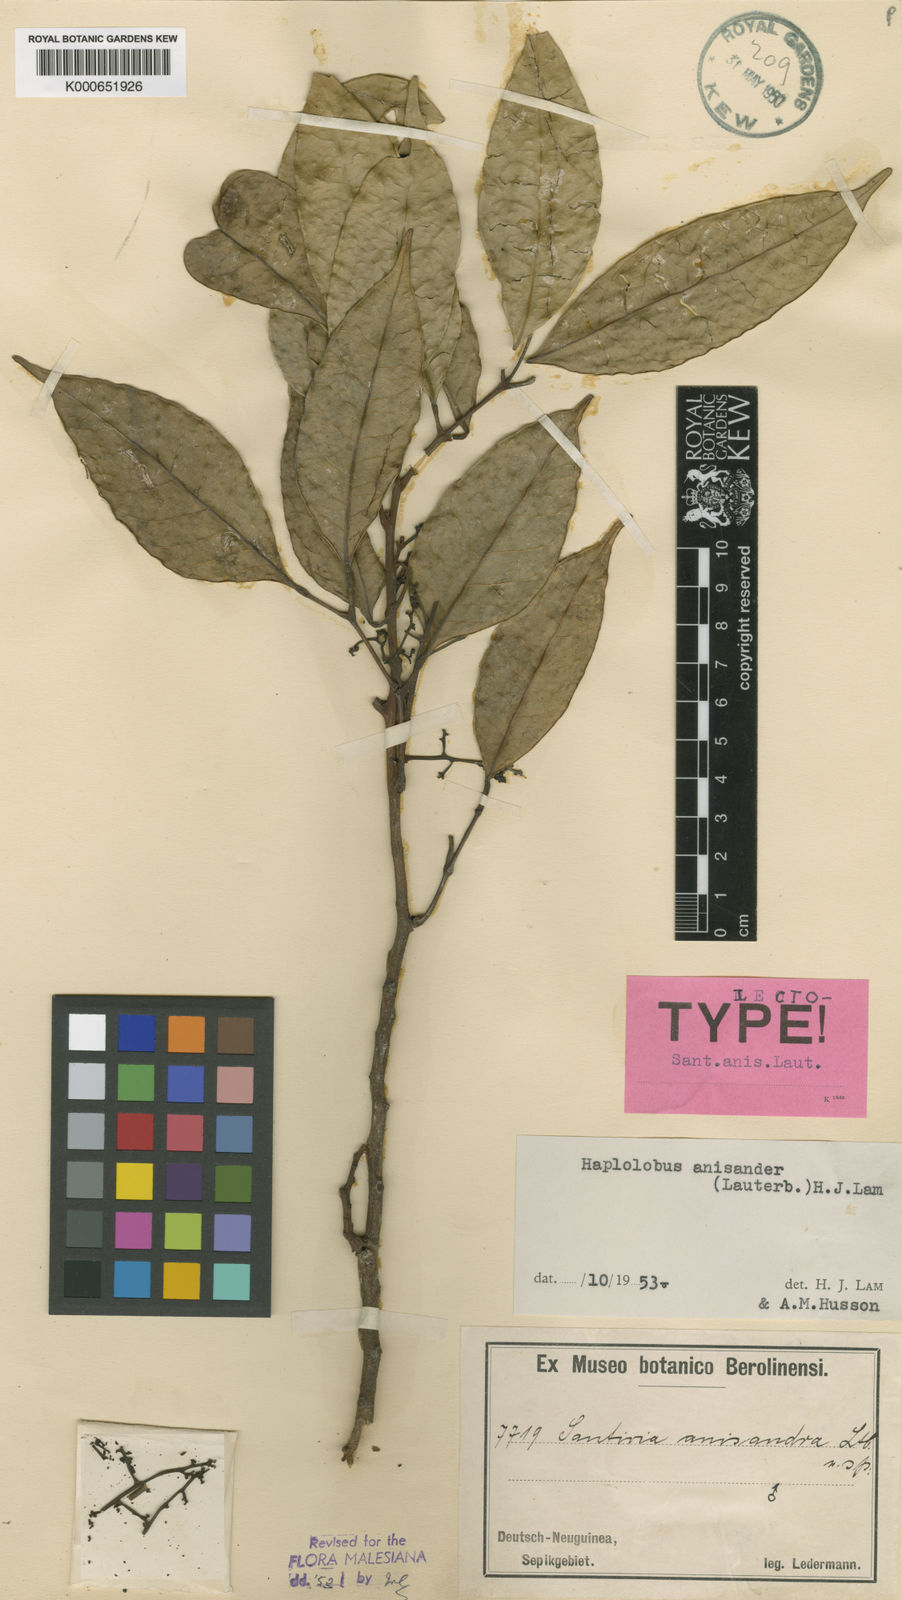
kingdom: Plantae
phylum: Tracheophyta
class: Magnoliopsida
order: Sapindales
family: Burseraceae
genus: Haplolobus
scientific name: Haplolobus floribundus
